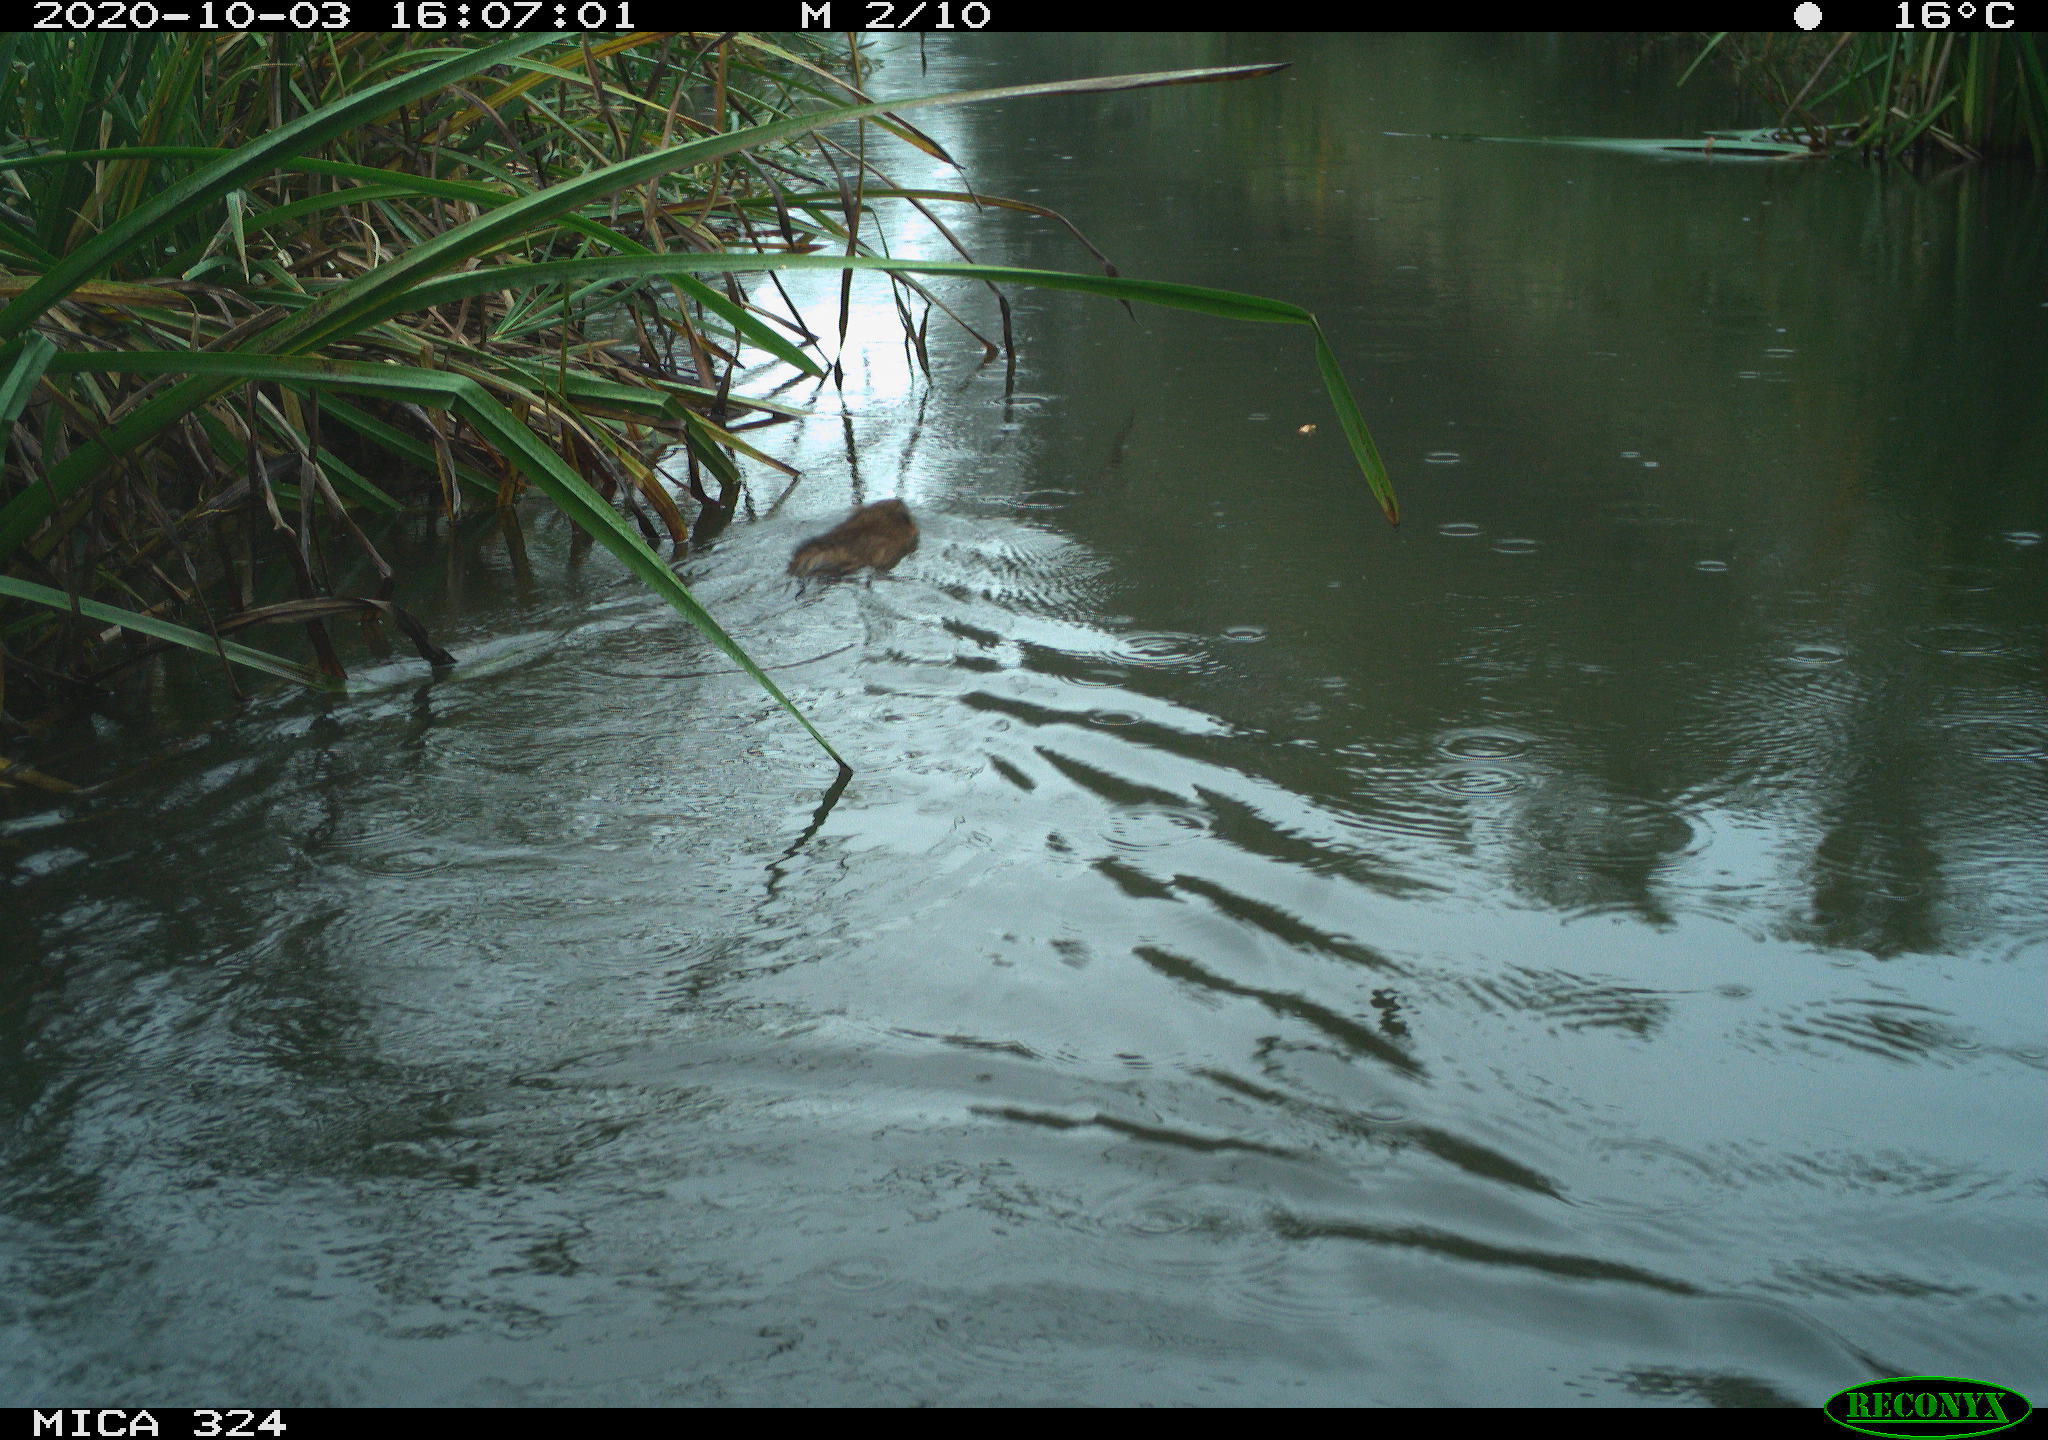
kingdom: Animalia
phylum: Chordata
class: Mammalia
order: Rodentia
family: Cricetidae
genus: Ondatra
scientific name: Ondatra zibethicus
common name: Muskrat
